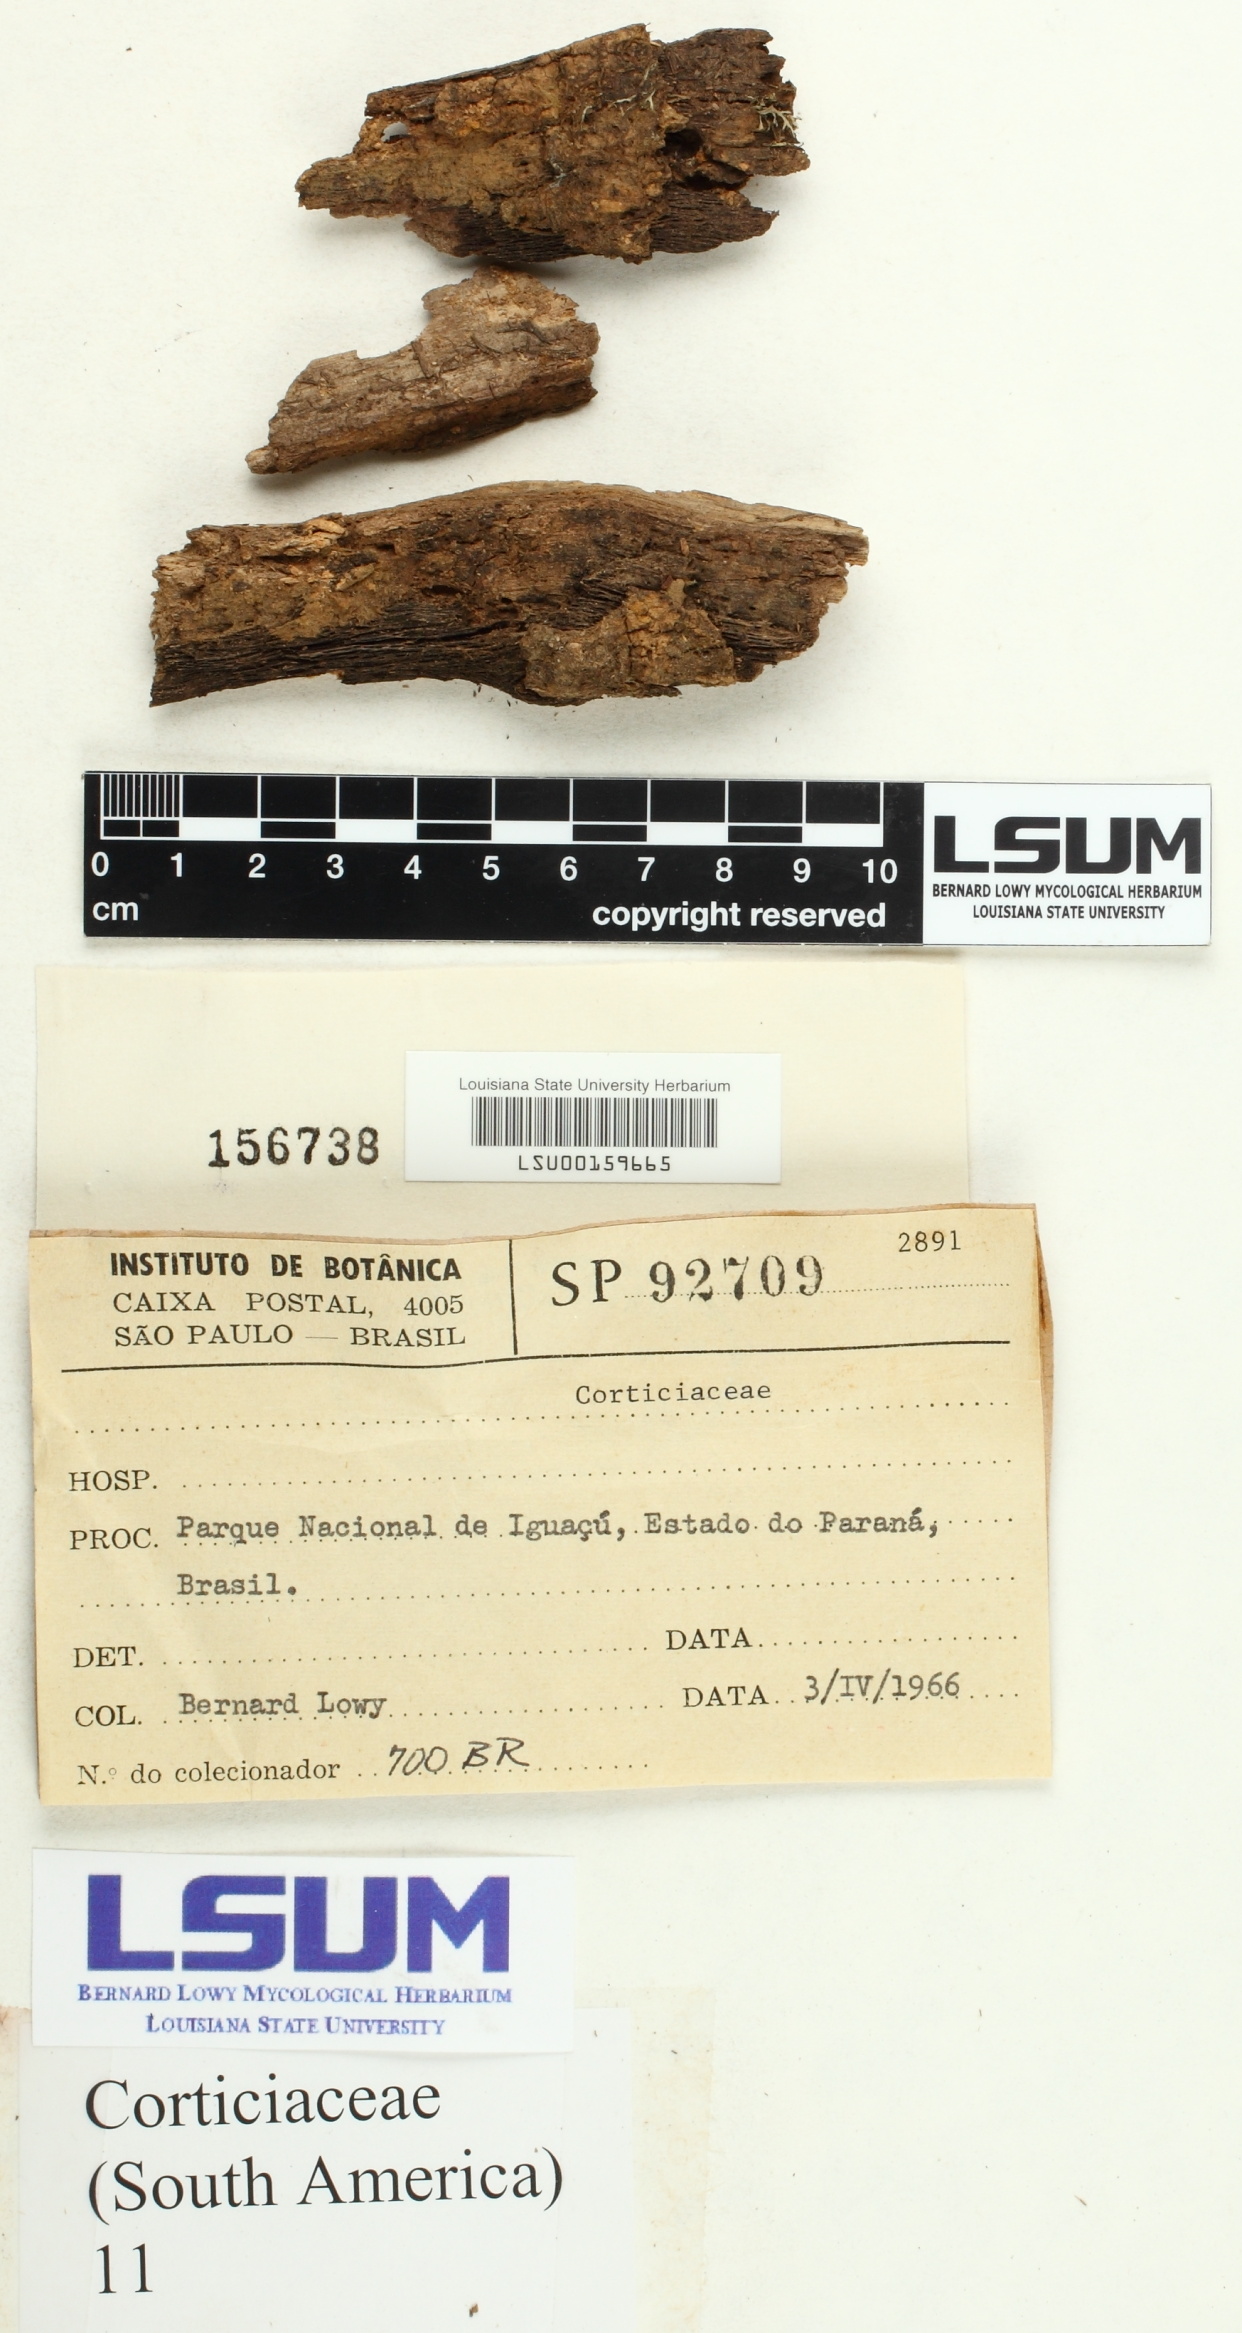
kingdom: Fungi
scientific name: Fungi
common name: Fungi
